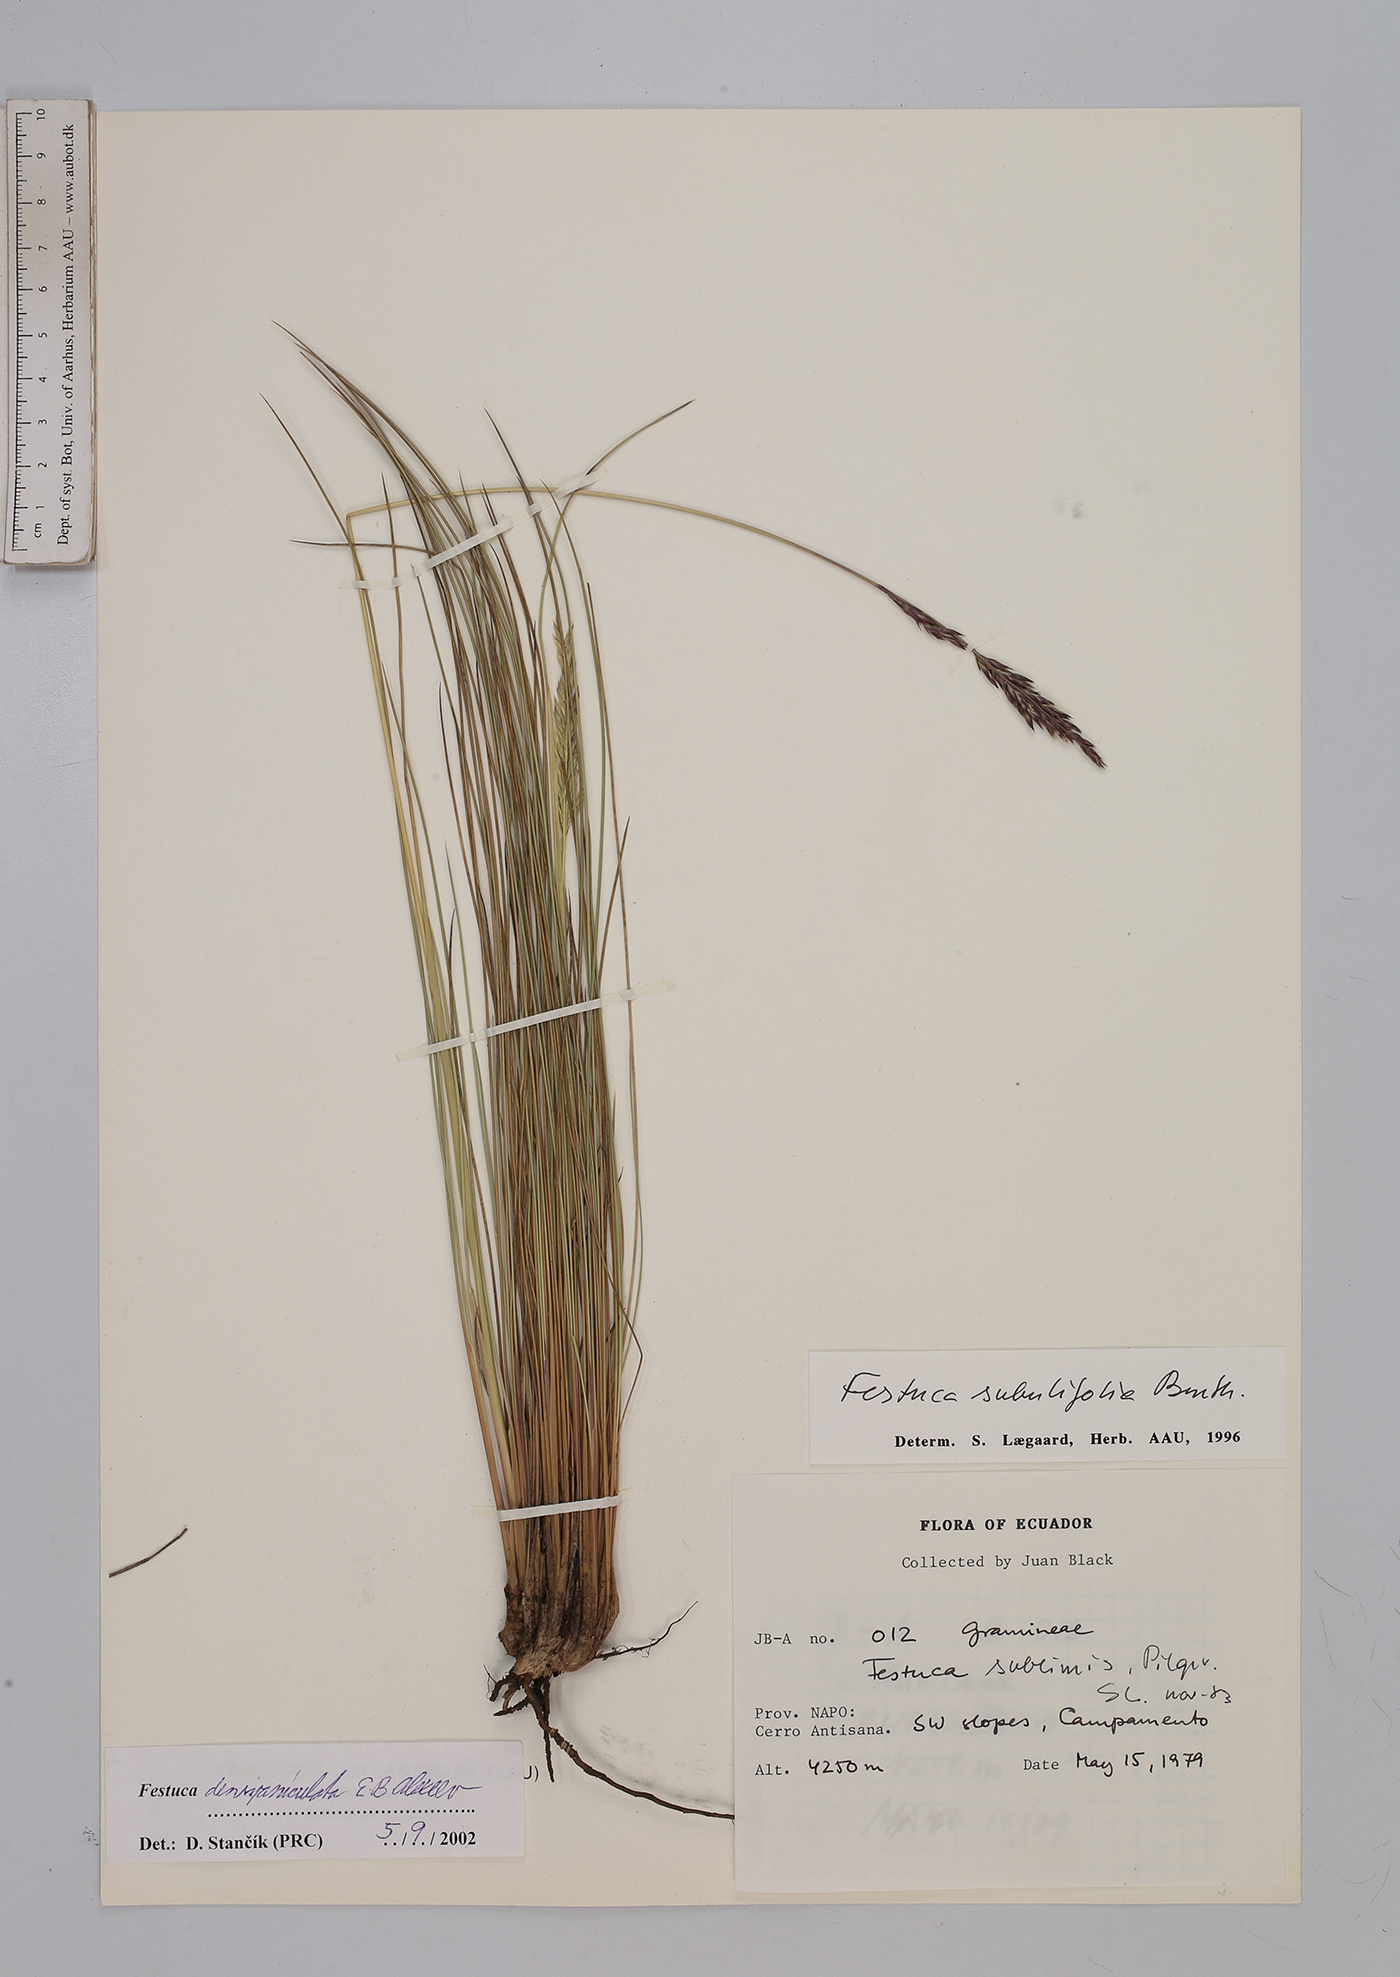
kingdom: Plantae
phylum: Tracheophyta
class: Liliopsida
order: Poales
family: Poaceae
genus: Festuca
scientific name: Festuca densipaniculata
